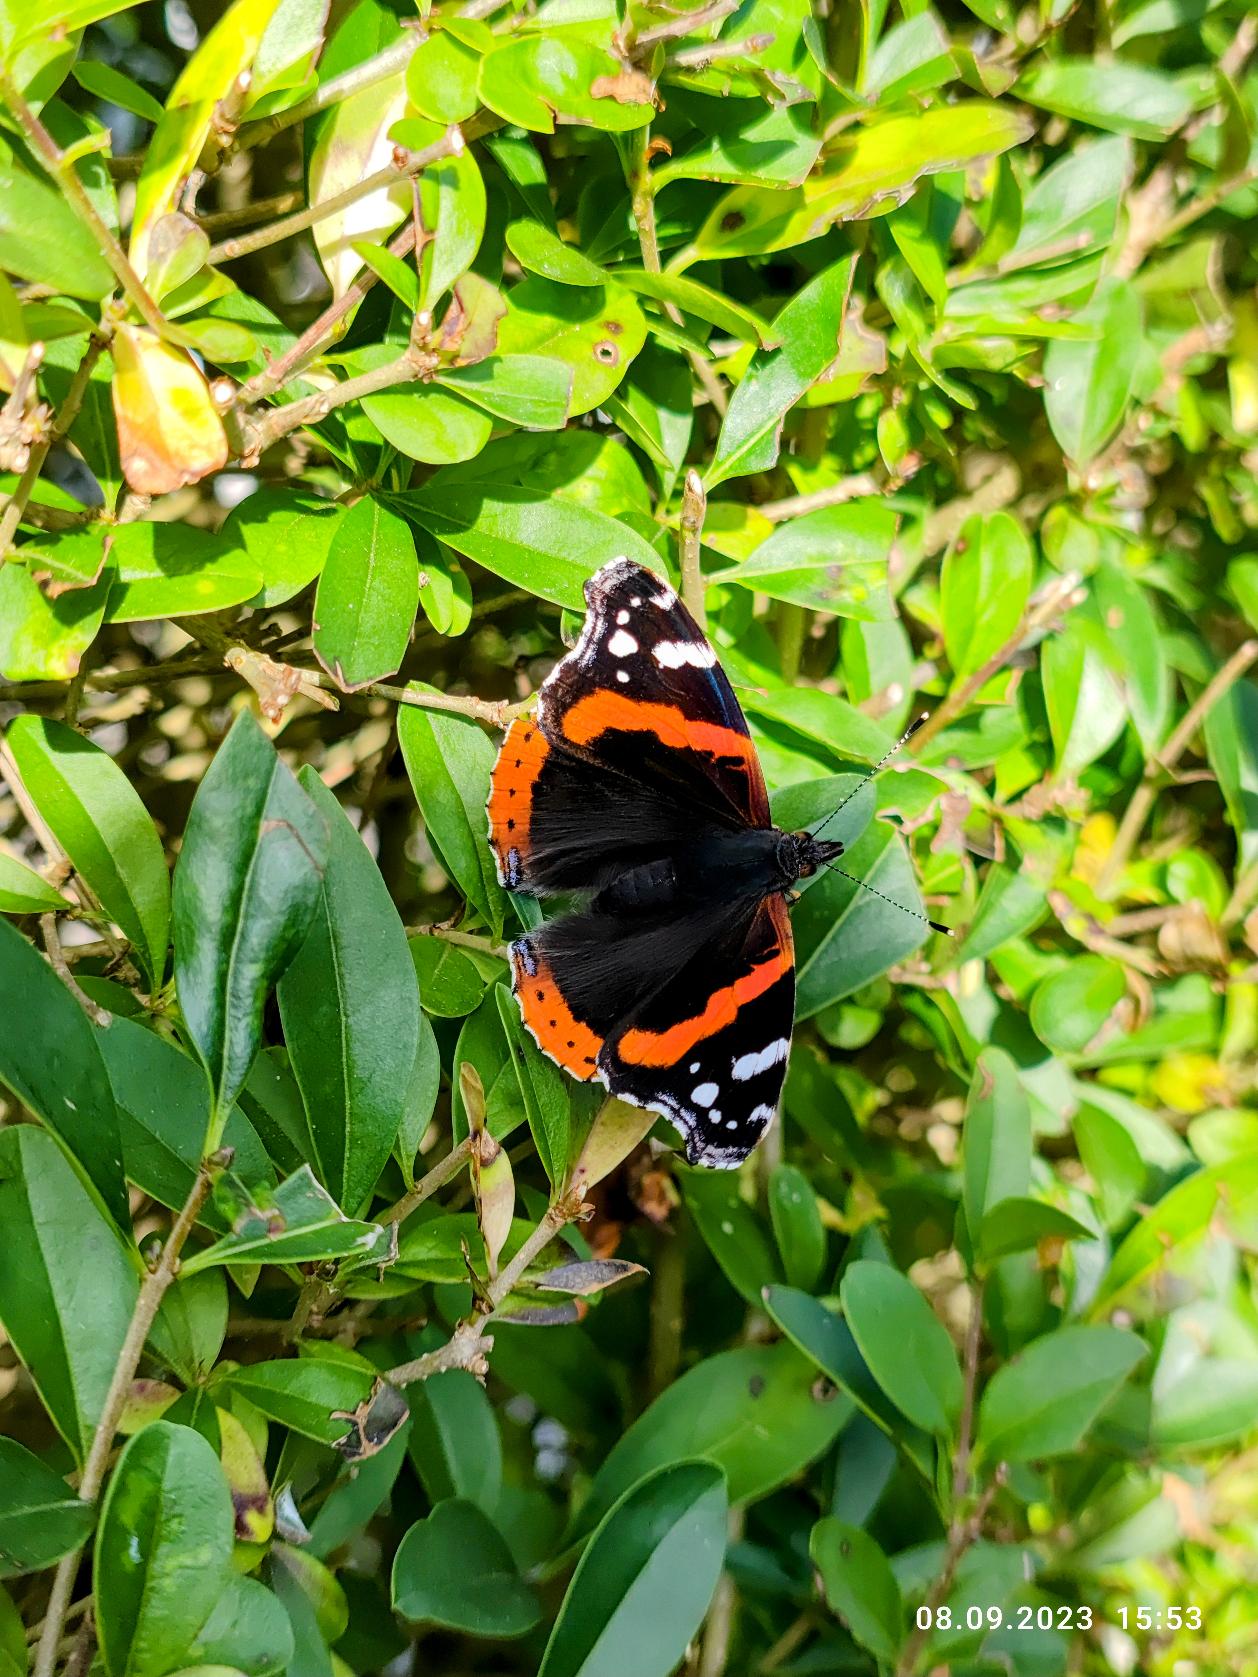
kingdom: Animalia
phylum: Arthropoda
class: Insecta
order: Lepidoptera
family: Nymphalidae
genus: Vanessa
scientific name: Vanessa atalanta
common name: Admiral
